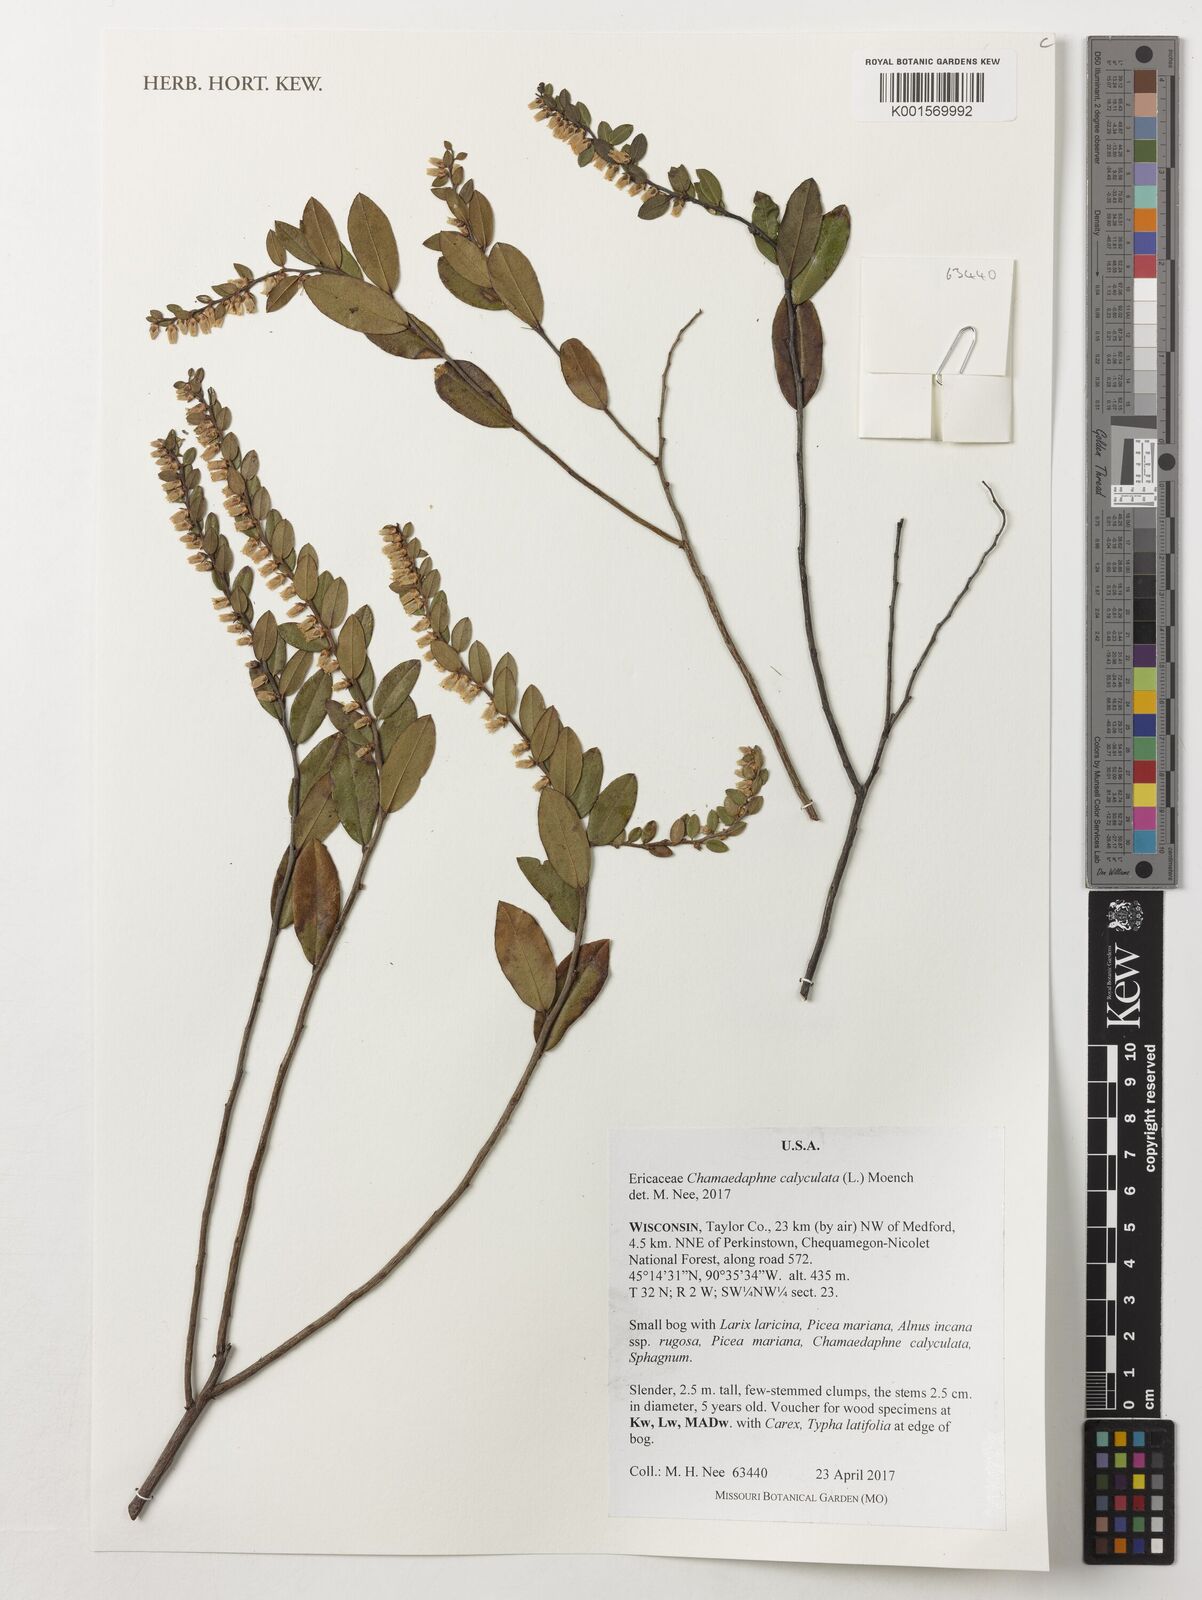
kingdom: Plantae
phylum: Tracheophyta
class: Magnoliopsida
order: Ericales
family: Ericaceae
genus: Chamaedaphne
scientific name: Chamaedaphne calyculata
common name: Leatherleaf
